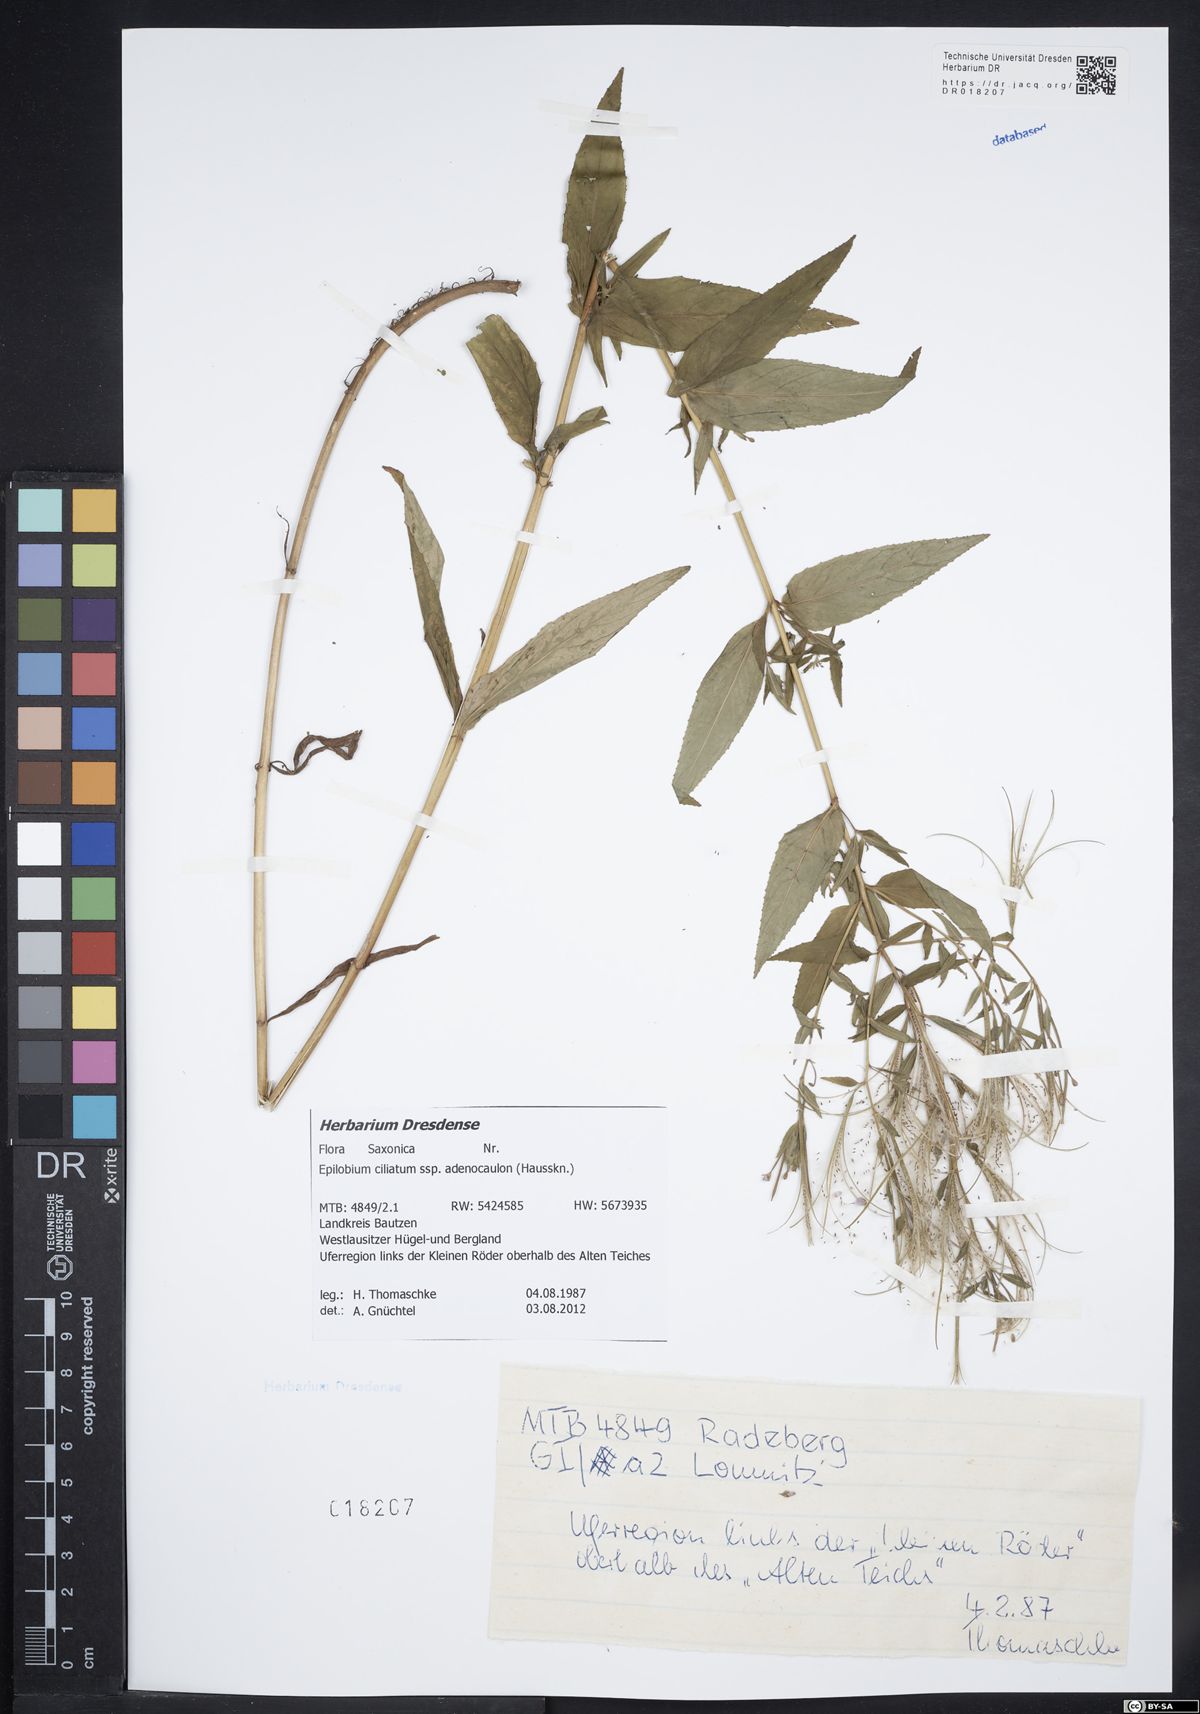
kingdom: Plantae
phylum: Tracheophyta
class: Magnoliopsida
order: Myrtales
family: Onagraceae
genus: Epilobium
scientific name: Epilobium ciliatum
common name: American willowherb
